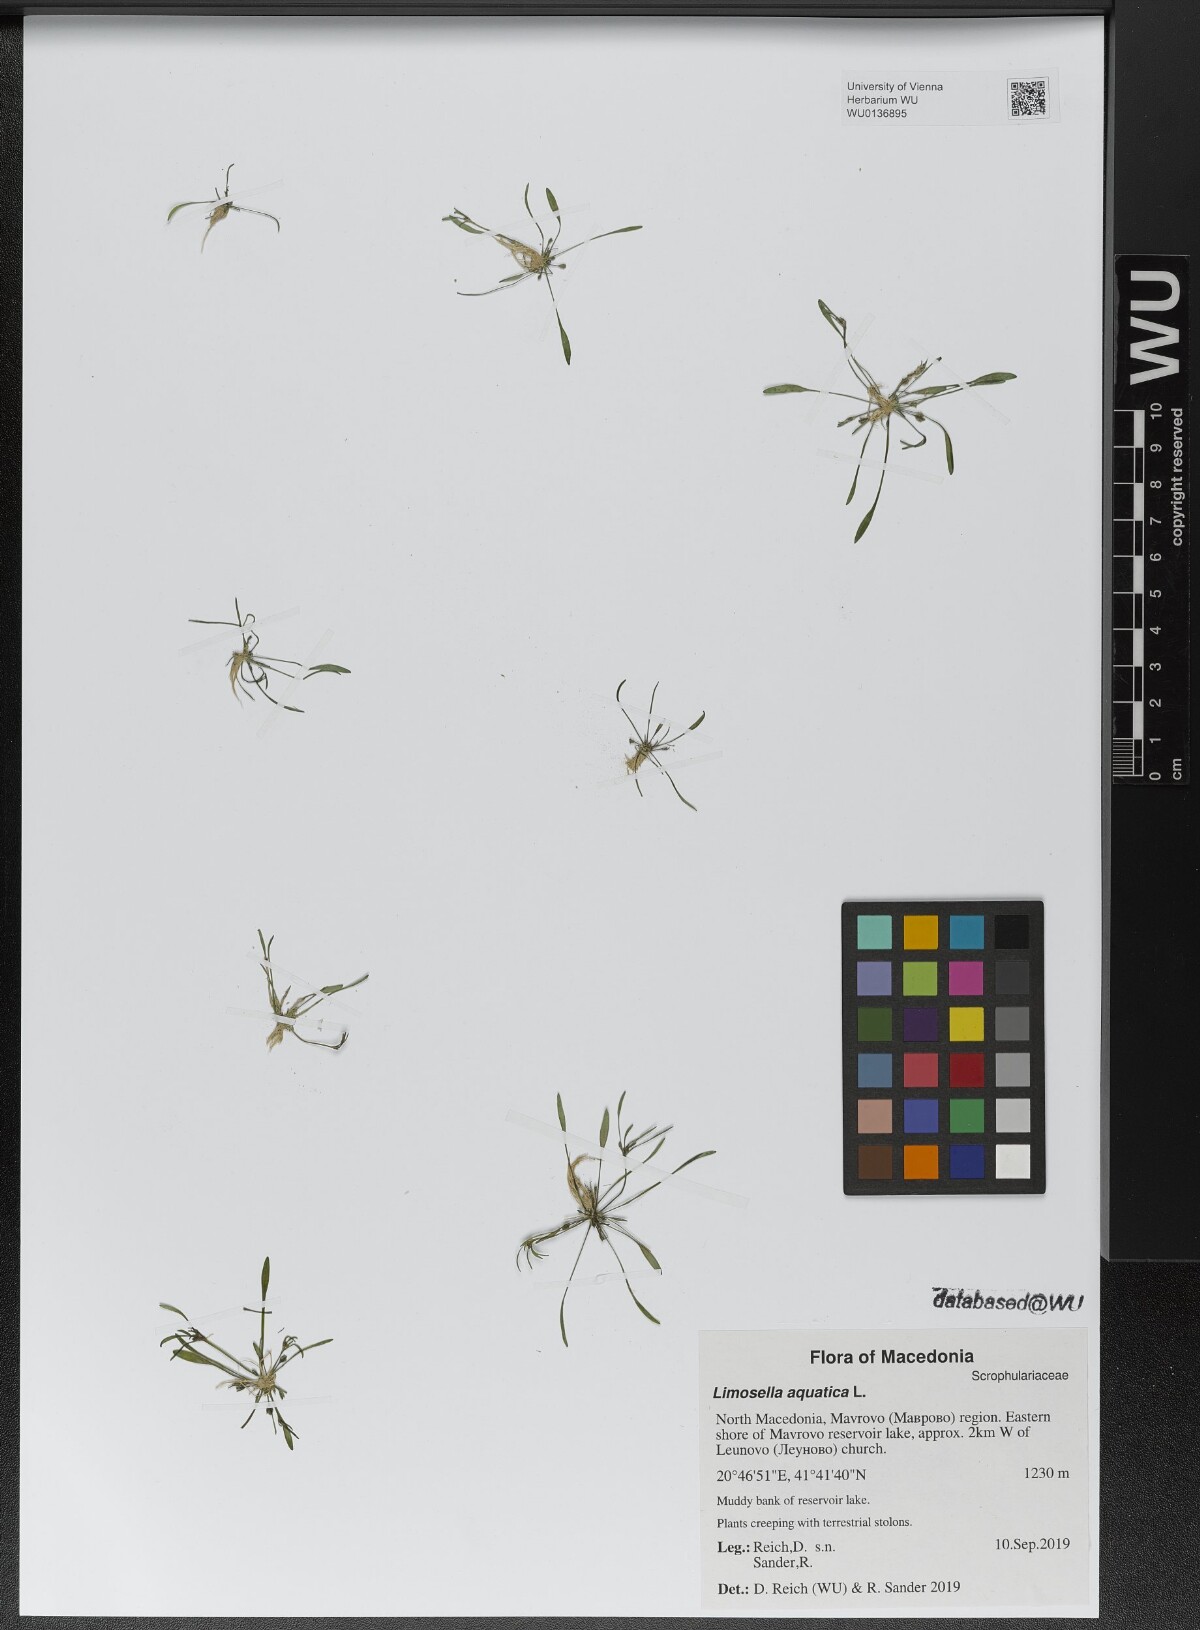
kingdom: Plantae
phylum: Tracheophyta
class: Magnoliopsida
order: Lamiales
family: Scrophulariaceae
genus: Limosella
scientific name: Limosella aquatica
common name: Mudwort
